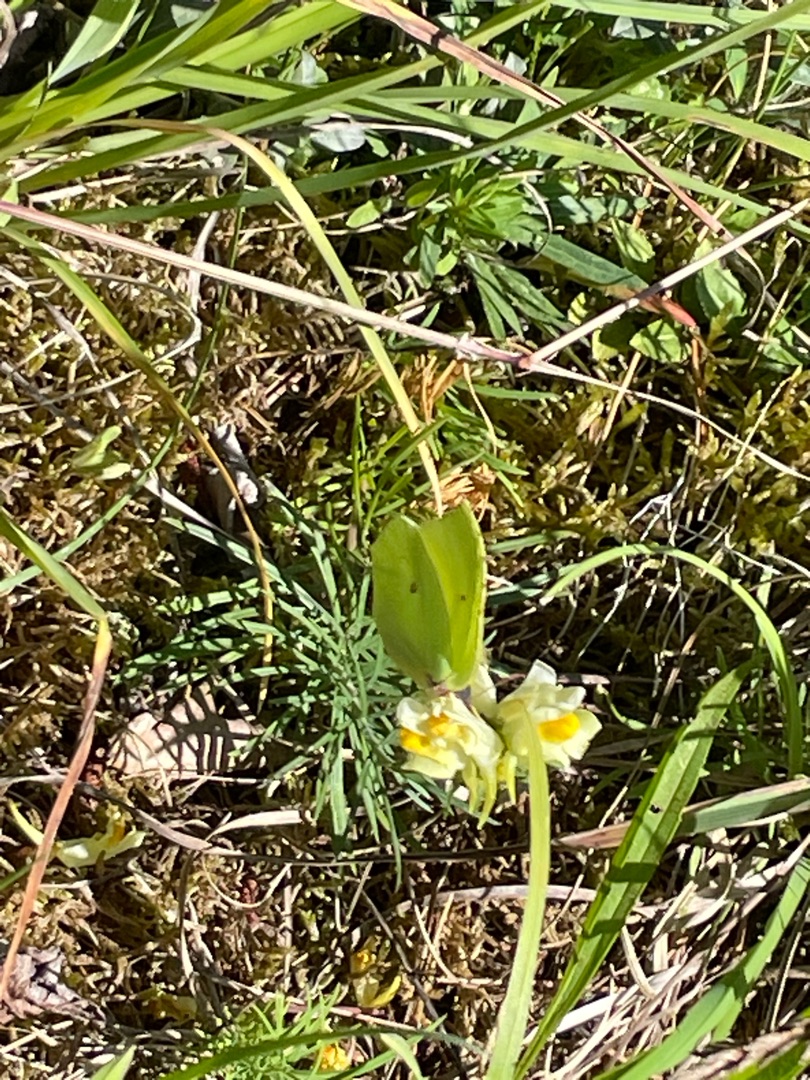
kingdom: Animalia
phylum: Arthropoda
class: Insecta
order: Lepidoptera
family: Pieridae
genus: Gonepteryx
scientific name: Gonepteryx rhamni
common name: Citronsommerfugl
